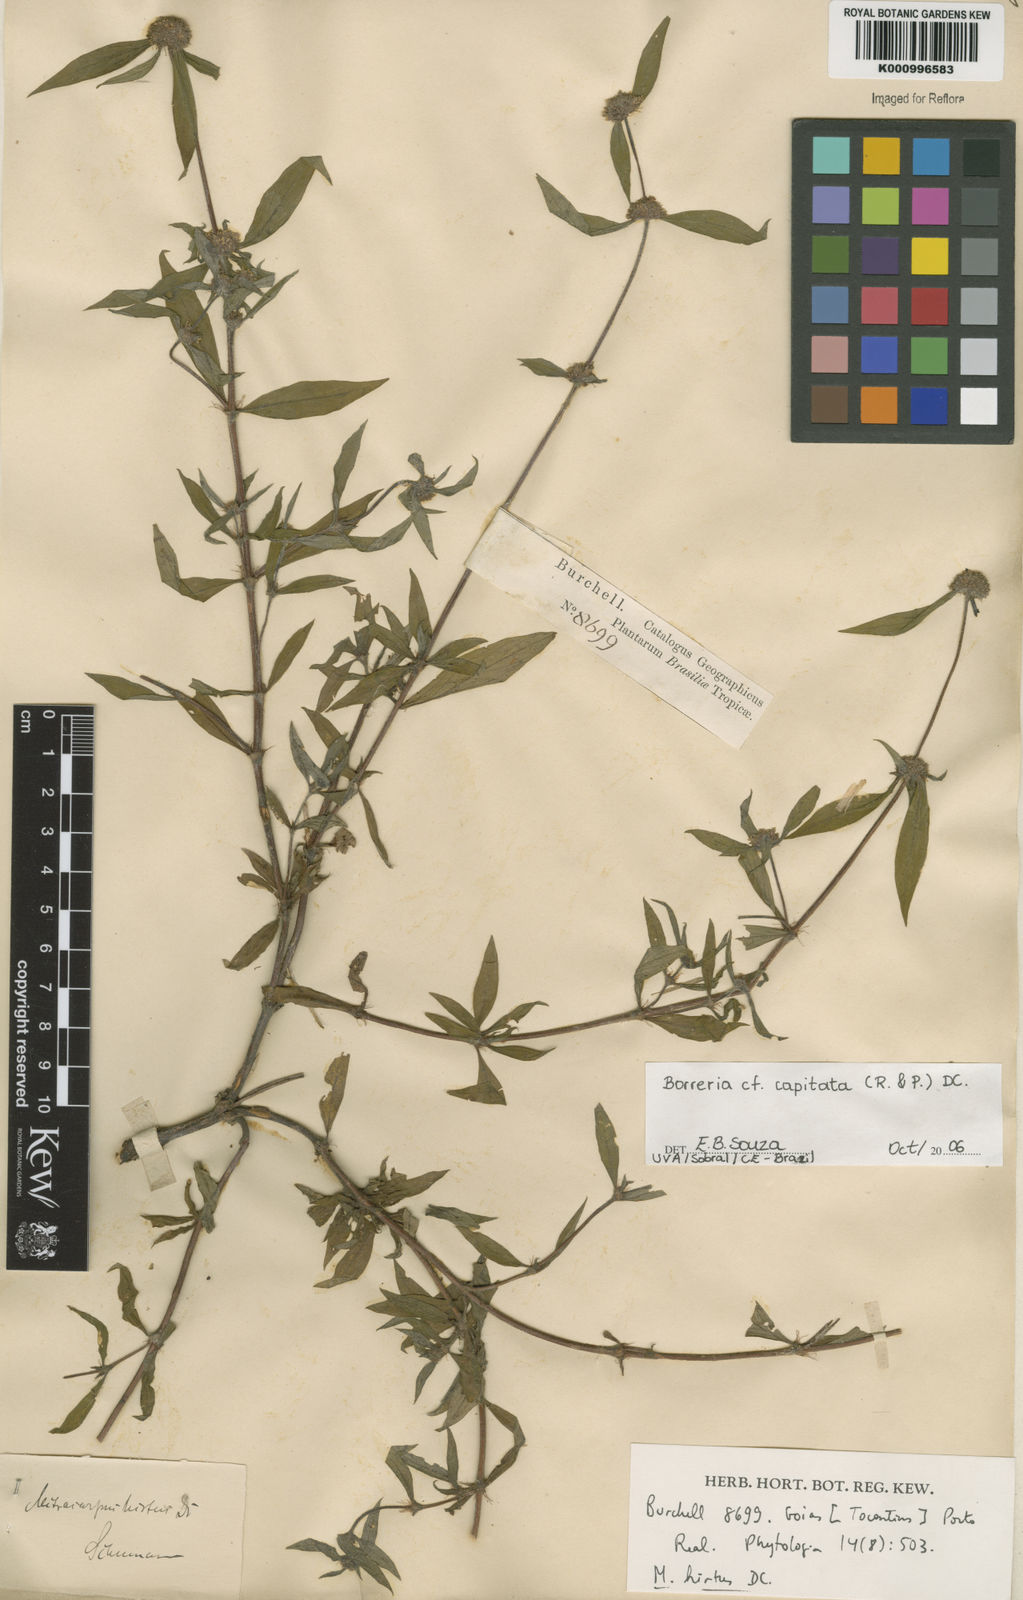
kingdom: Plantae
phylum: Tracheophyta
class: Magnoliopsida
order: Gentianales
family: Rubiaceae
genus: Spermacoce
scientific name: Spermacoce capitata
